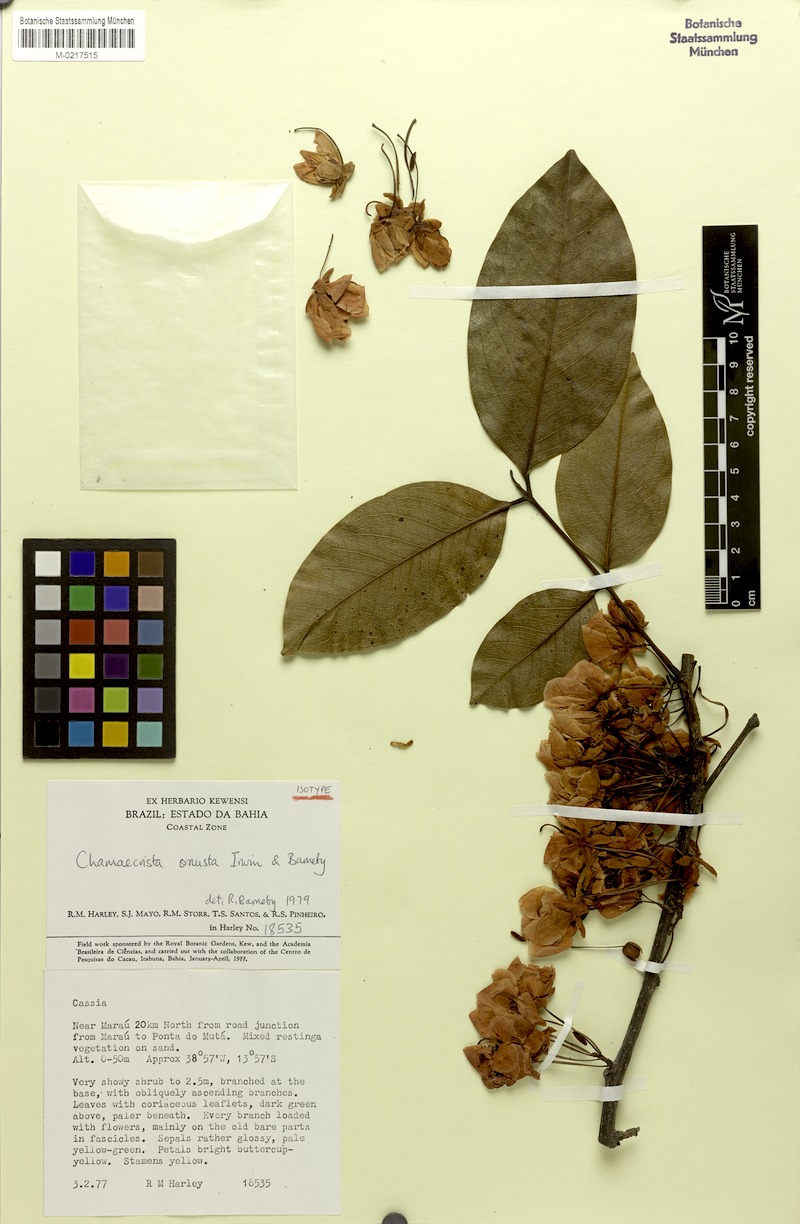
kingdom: Plantae
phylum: Tracheophyta
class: Magnoliopsida
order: Fabales
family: Fabaceae
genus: Chamaecrista
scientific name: Chamaecrista onusta
